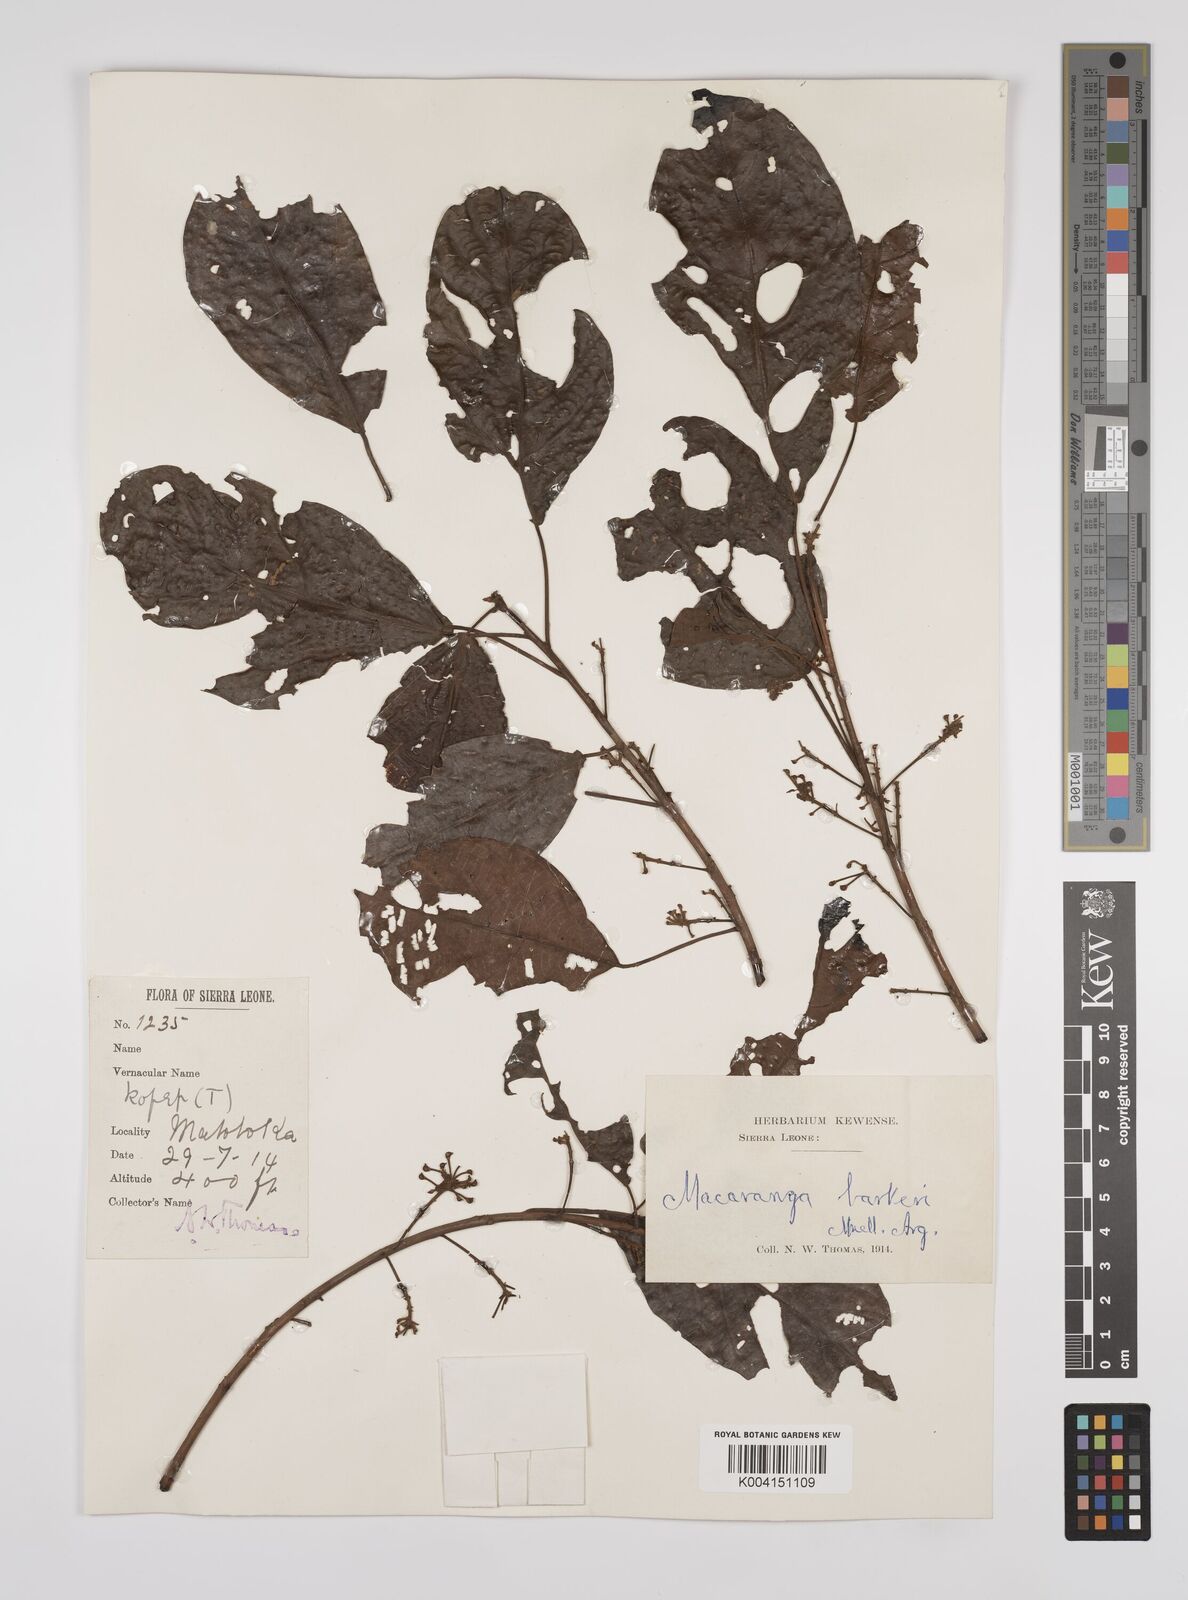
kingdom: Plantae
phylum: Tracheophyta
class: Magnoliopsida
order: Malpighiales
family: Euphorbiaceae
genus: Macaranga
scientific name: Macaranga barteri
